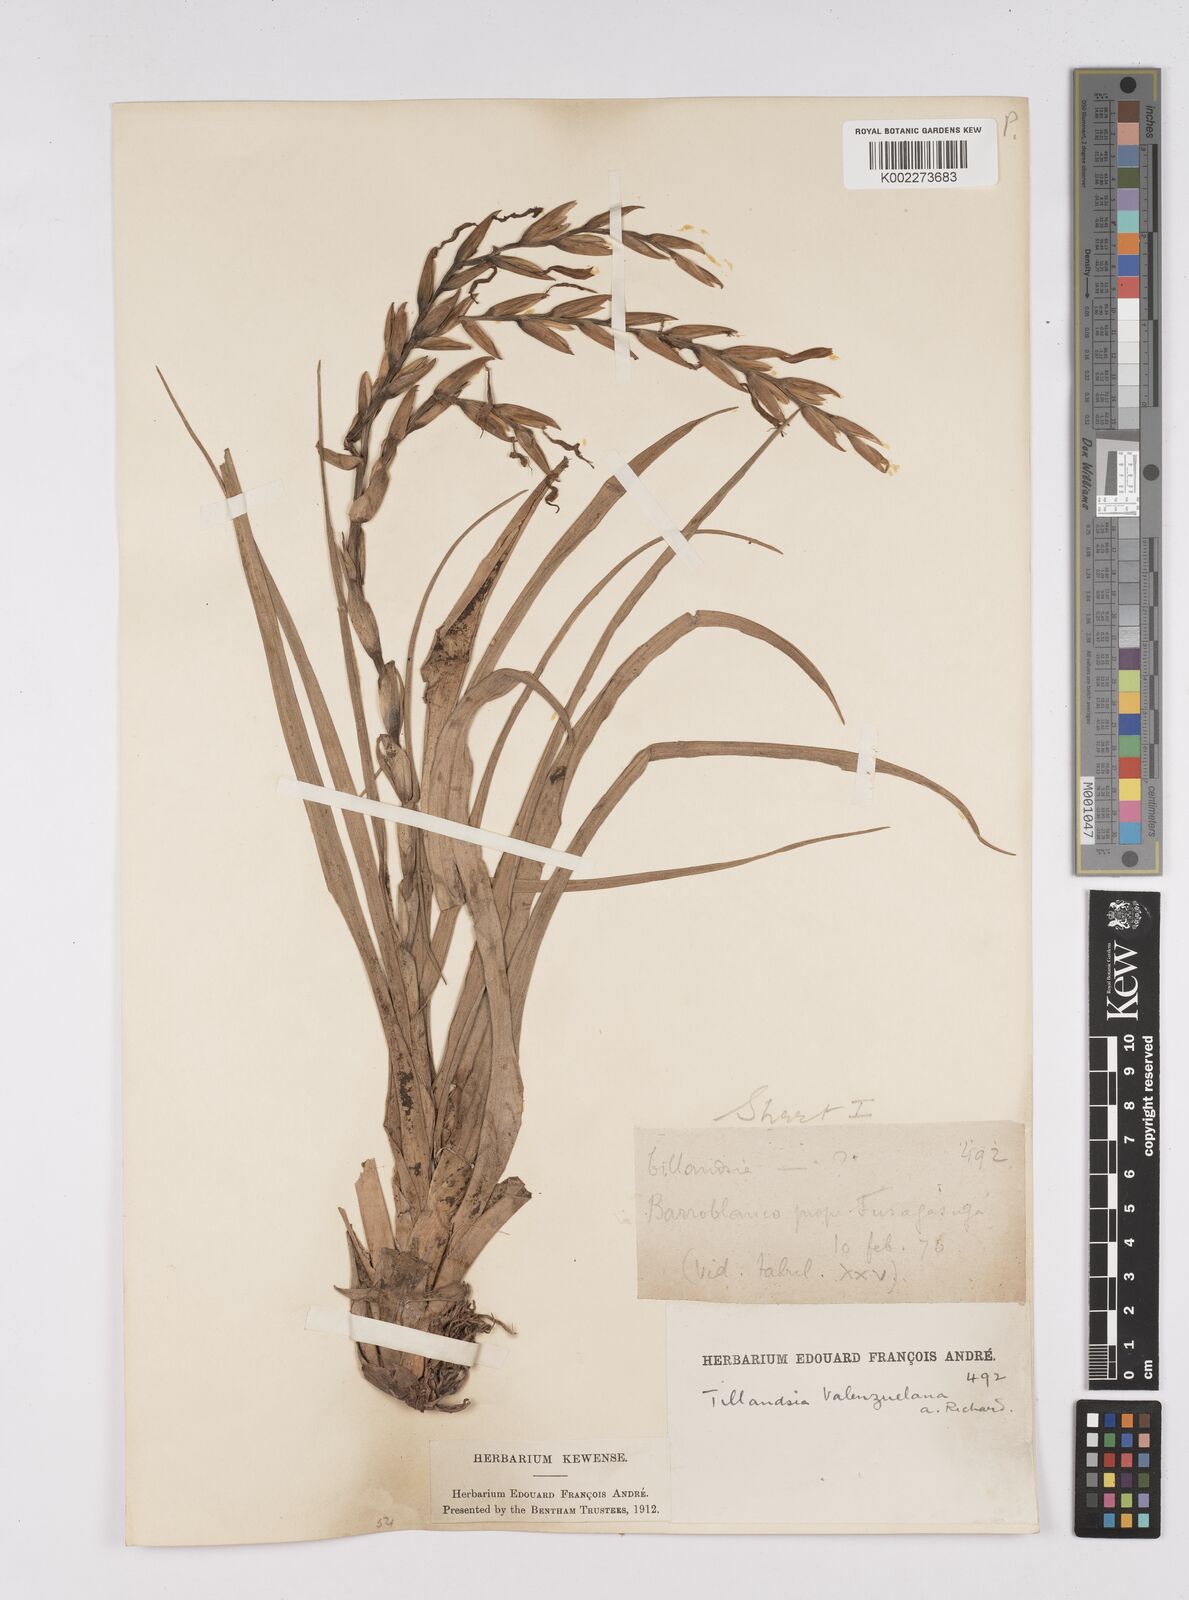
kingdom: Plantae
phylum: Tracheophyta
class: Liliopsida
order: Poales
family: Bromeliaceae
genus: Tillandsia
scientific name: Tillandsia variabilis
